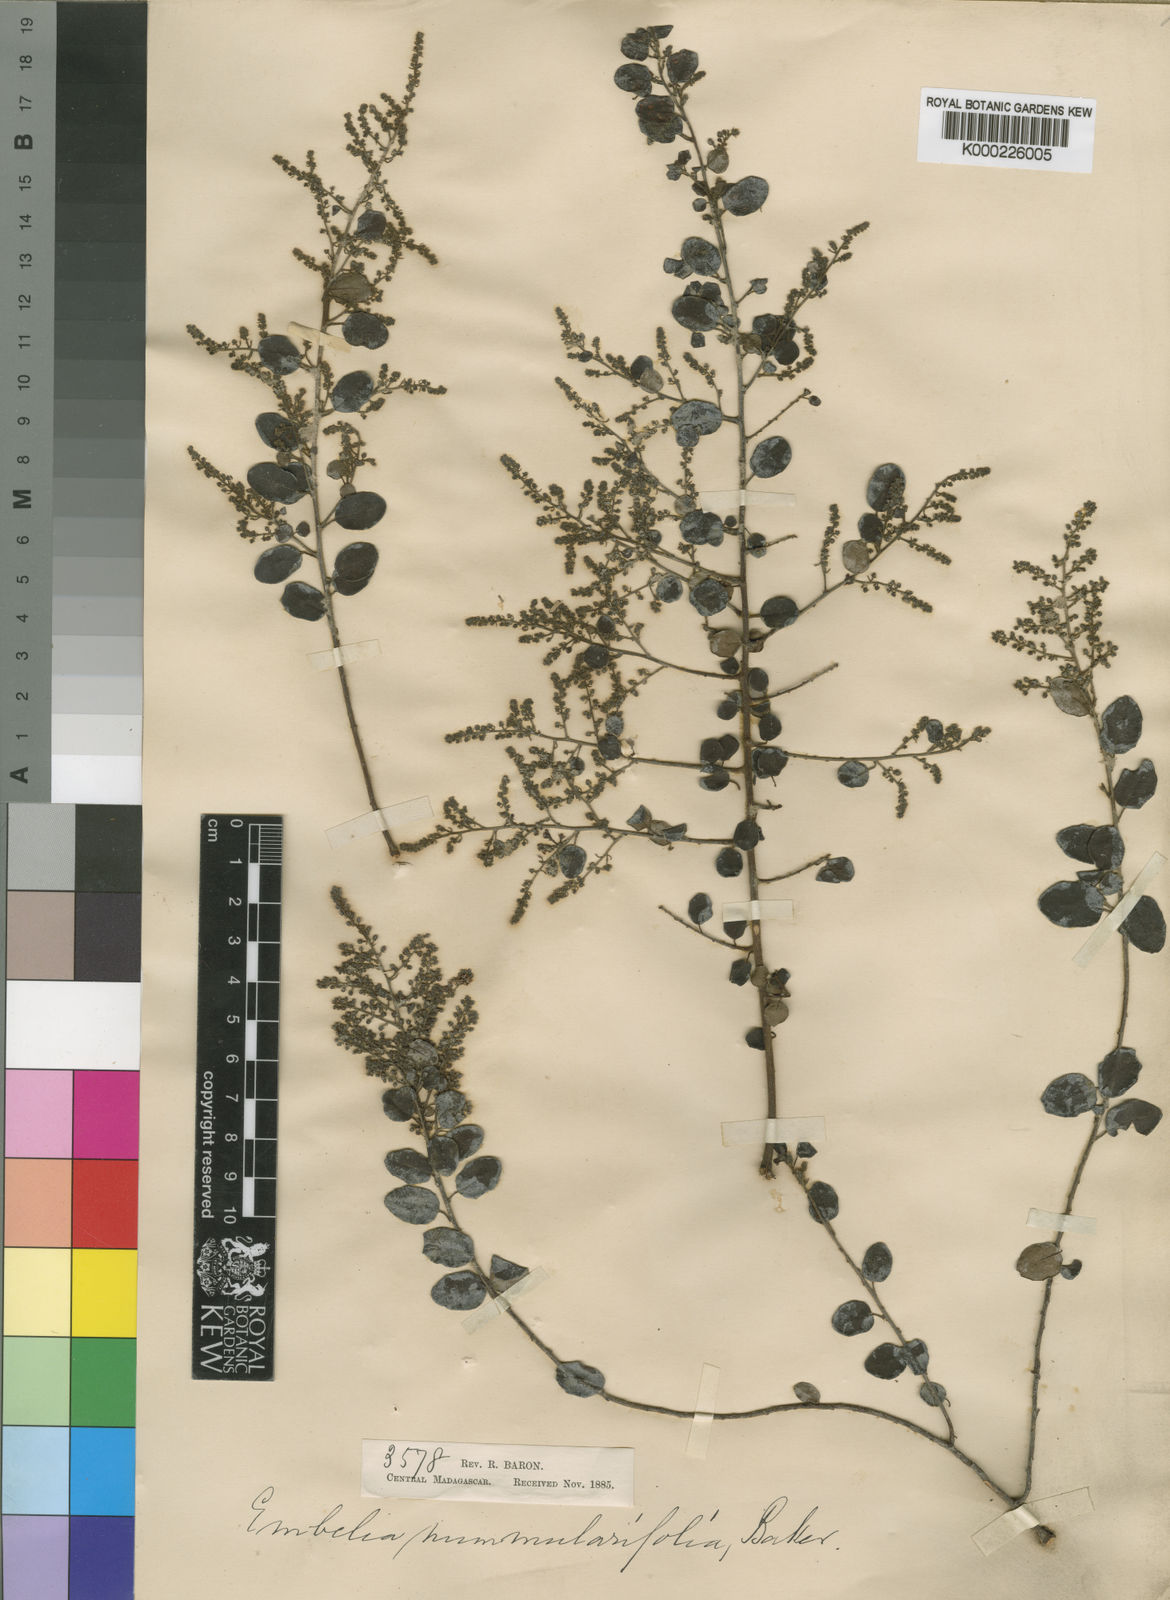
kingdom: Plantae
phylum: Tracheophyta
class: Magnoliopsida
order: Ericales
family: Primulaceae
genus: Embelia
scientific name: Embelia nummulariifolia
